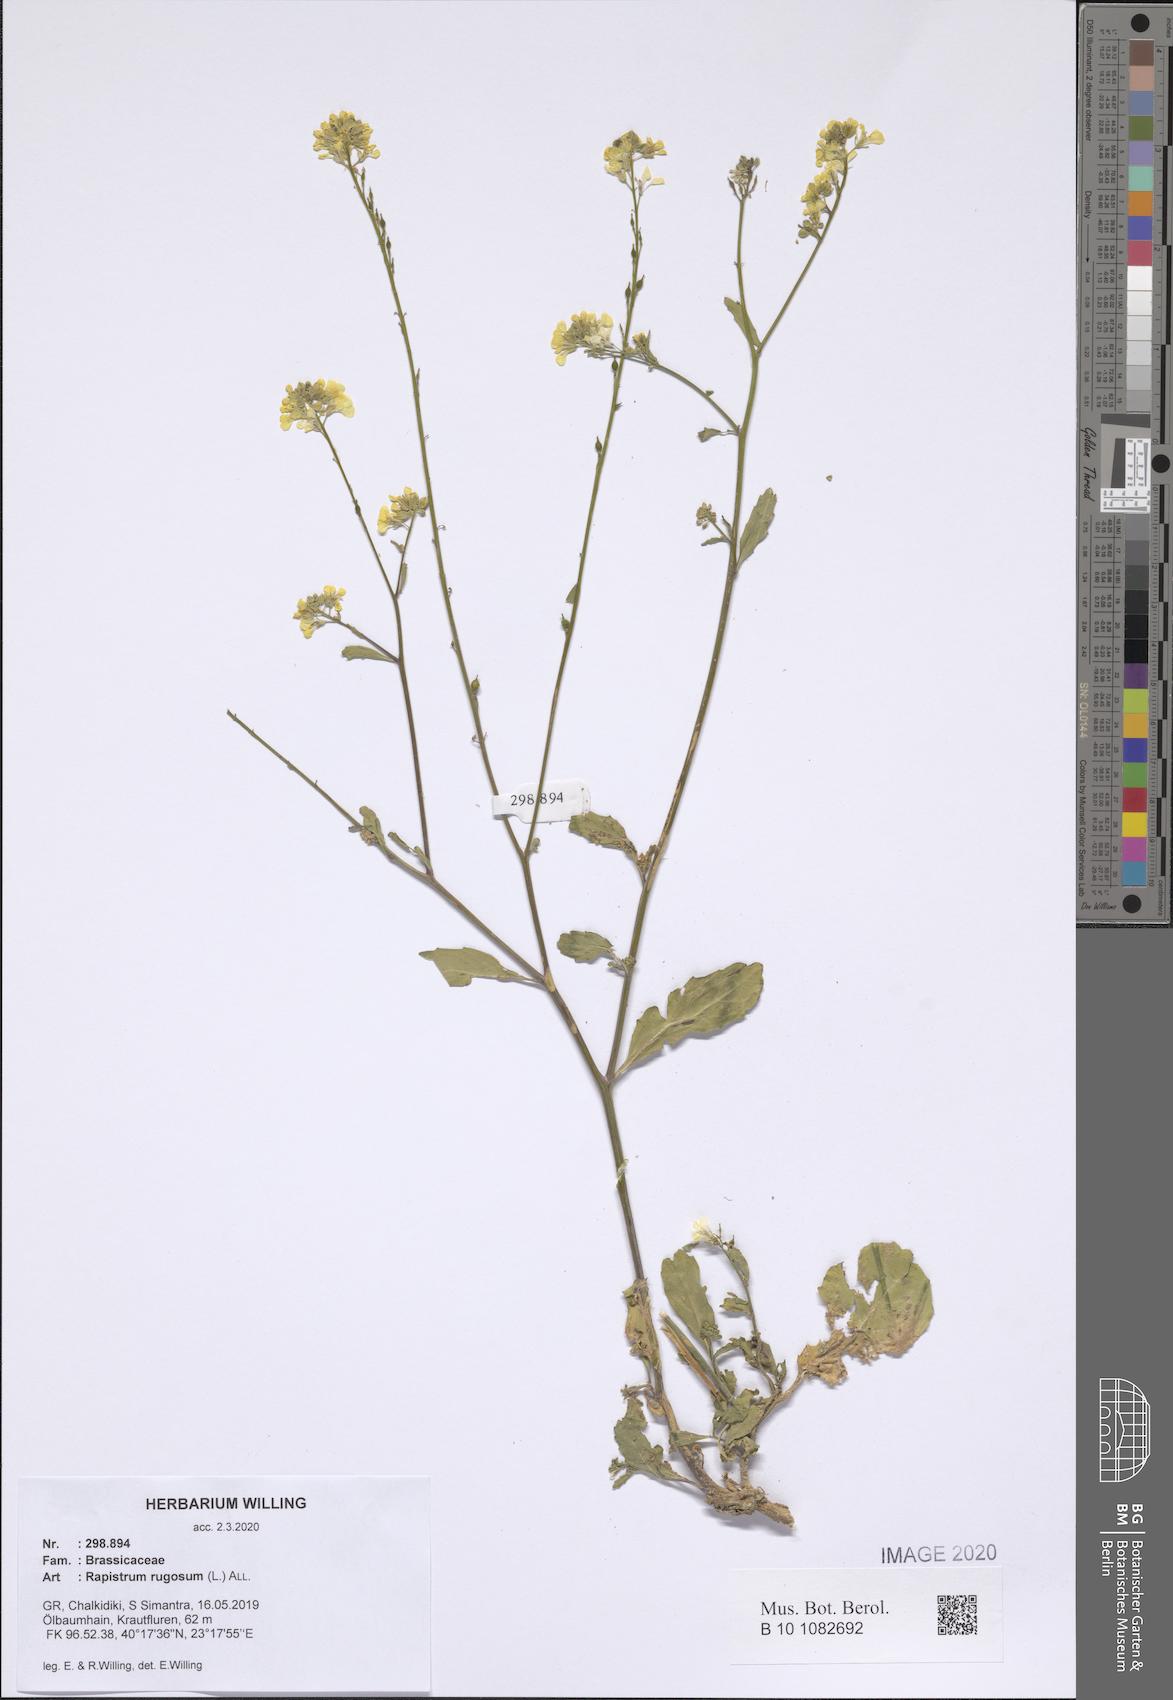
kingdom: Plantae
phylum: Tracheophyta
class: Magnoliopsida
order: Brassicales
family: Brassicaceae
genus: Rapistrum
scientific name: Rapistrum rugosum
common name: Annual bastardcabbage
